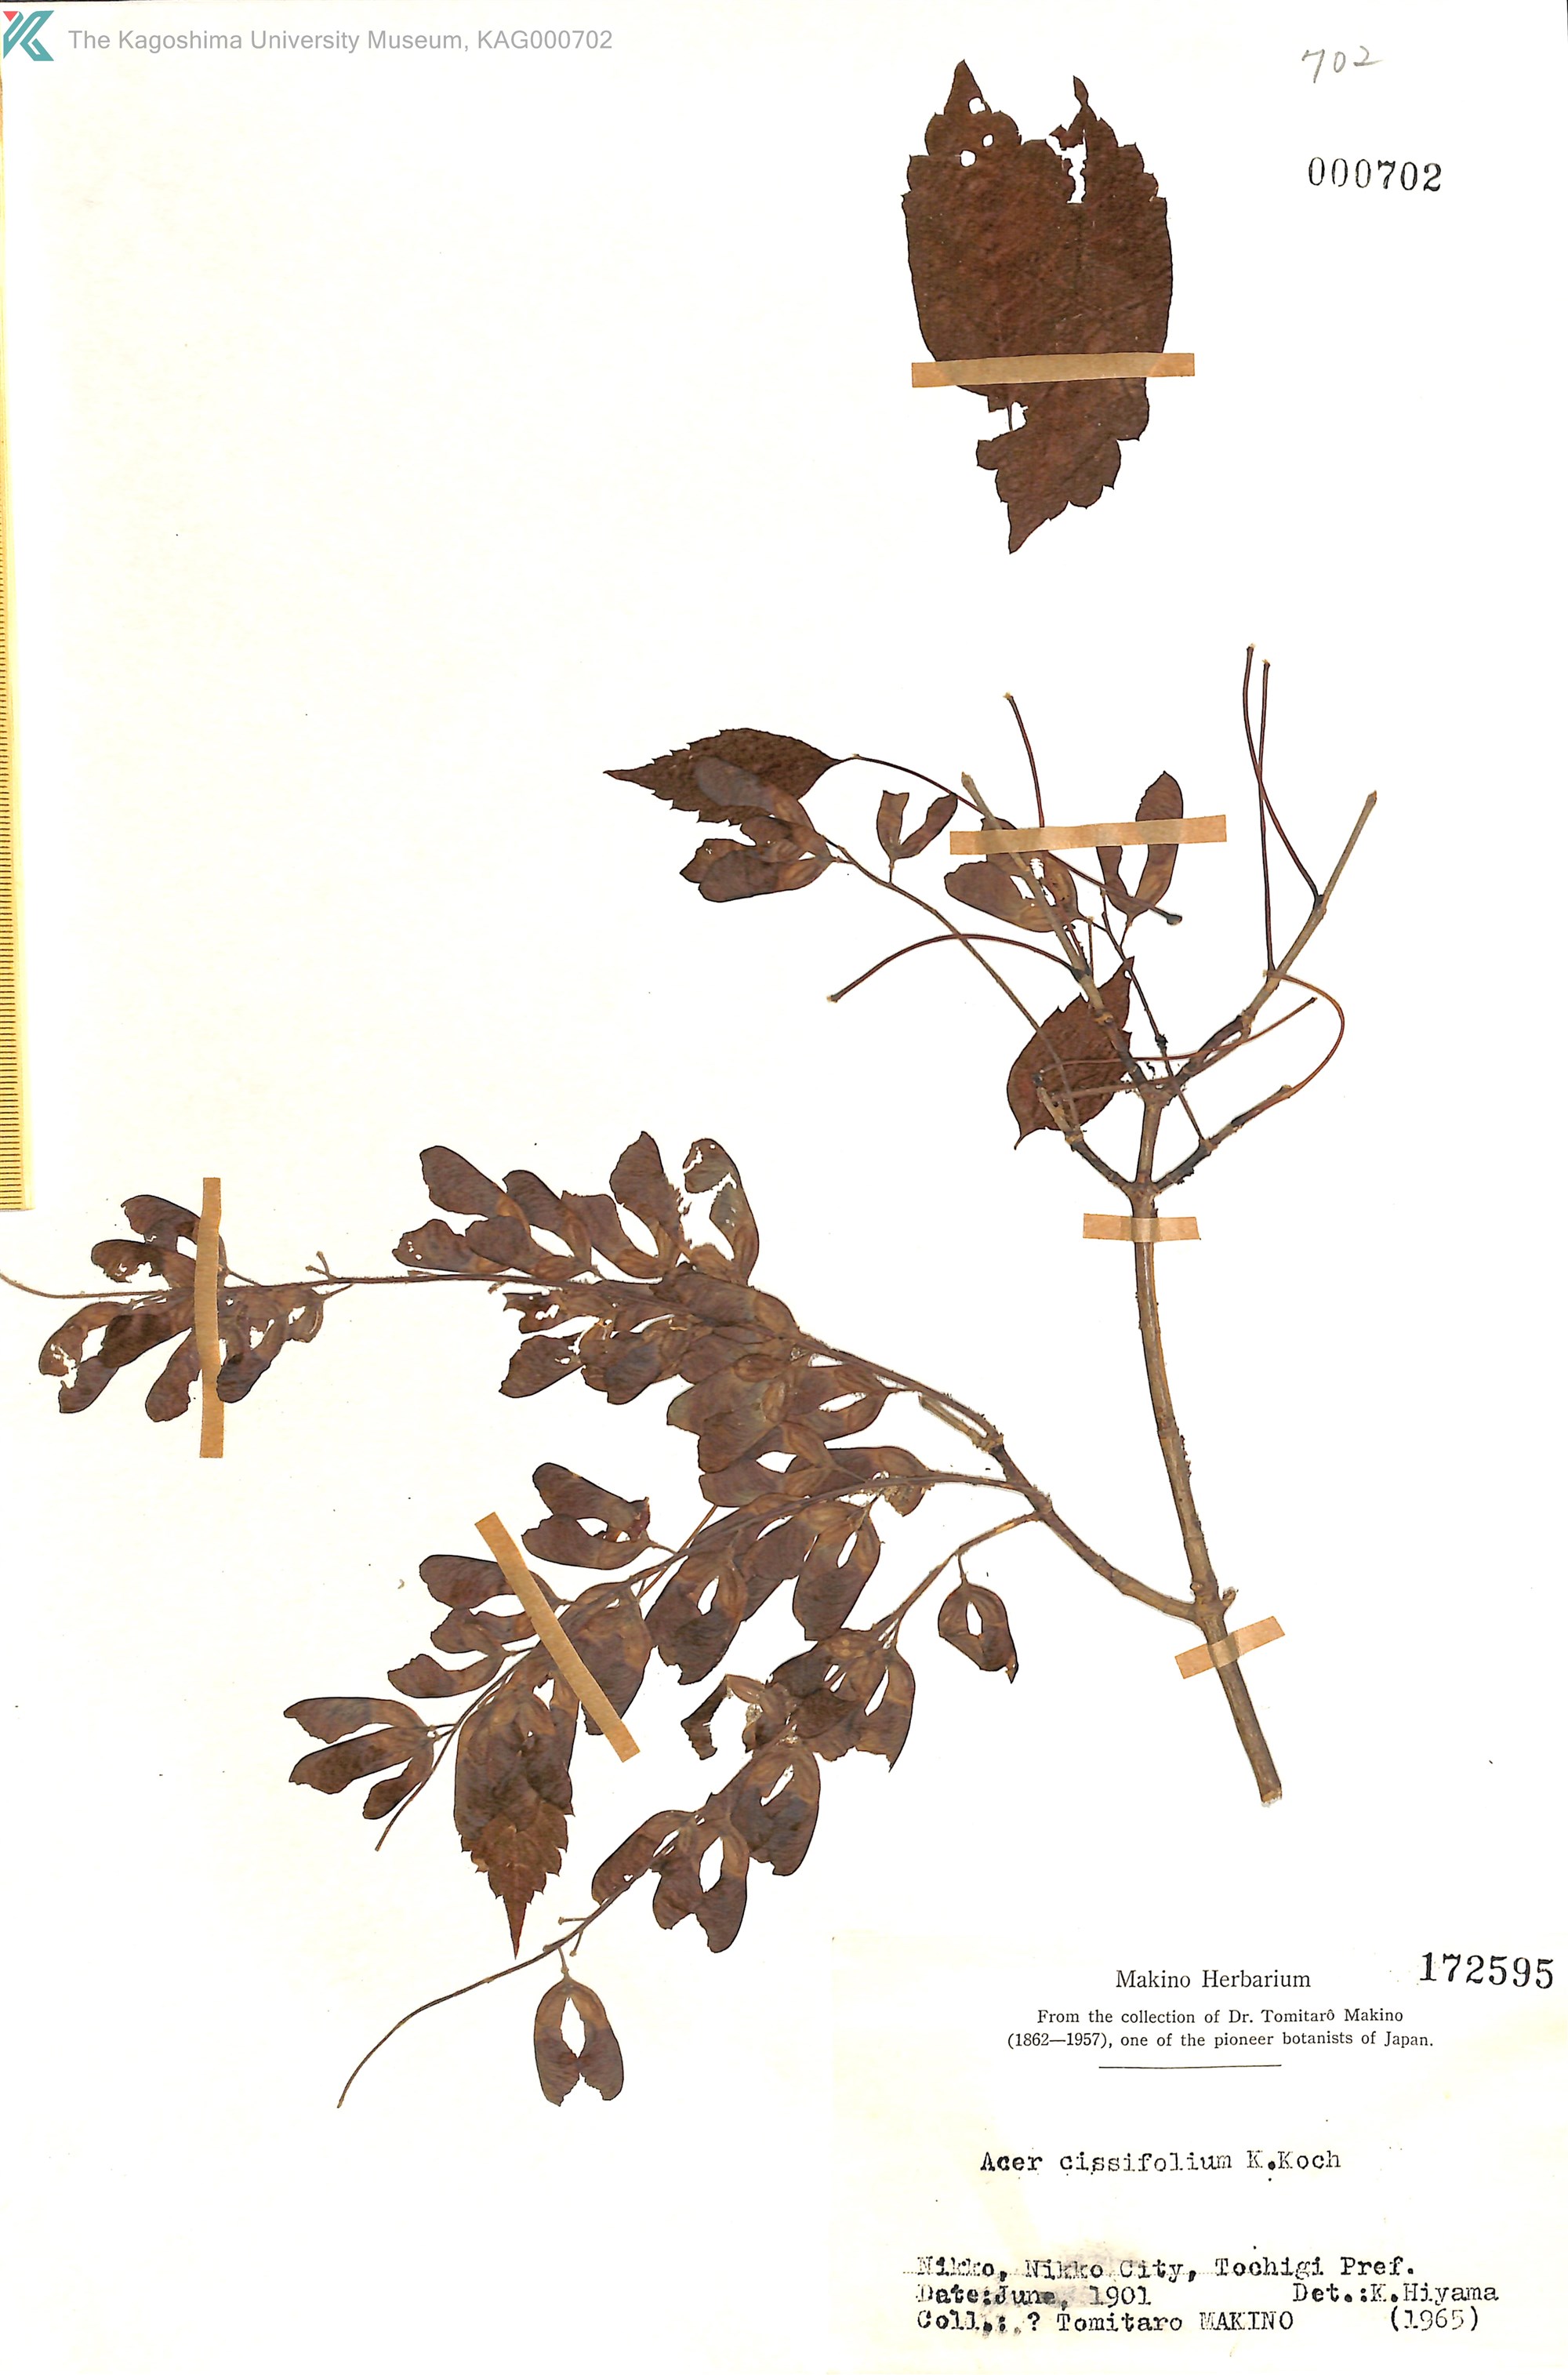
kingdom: Plantae
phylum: Tracheophyta
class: Magnoliopsida
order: Sapindales
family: Sapindaceae
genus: Acer
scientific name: Acer cissifolium
